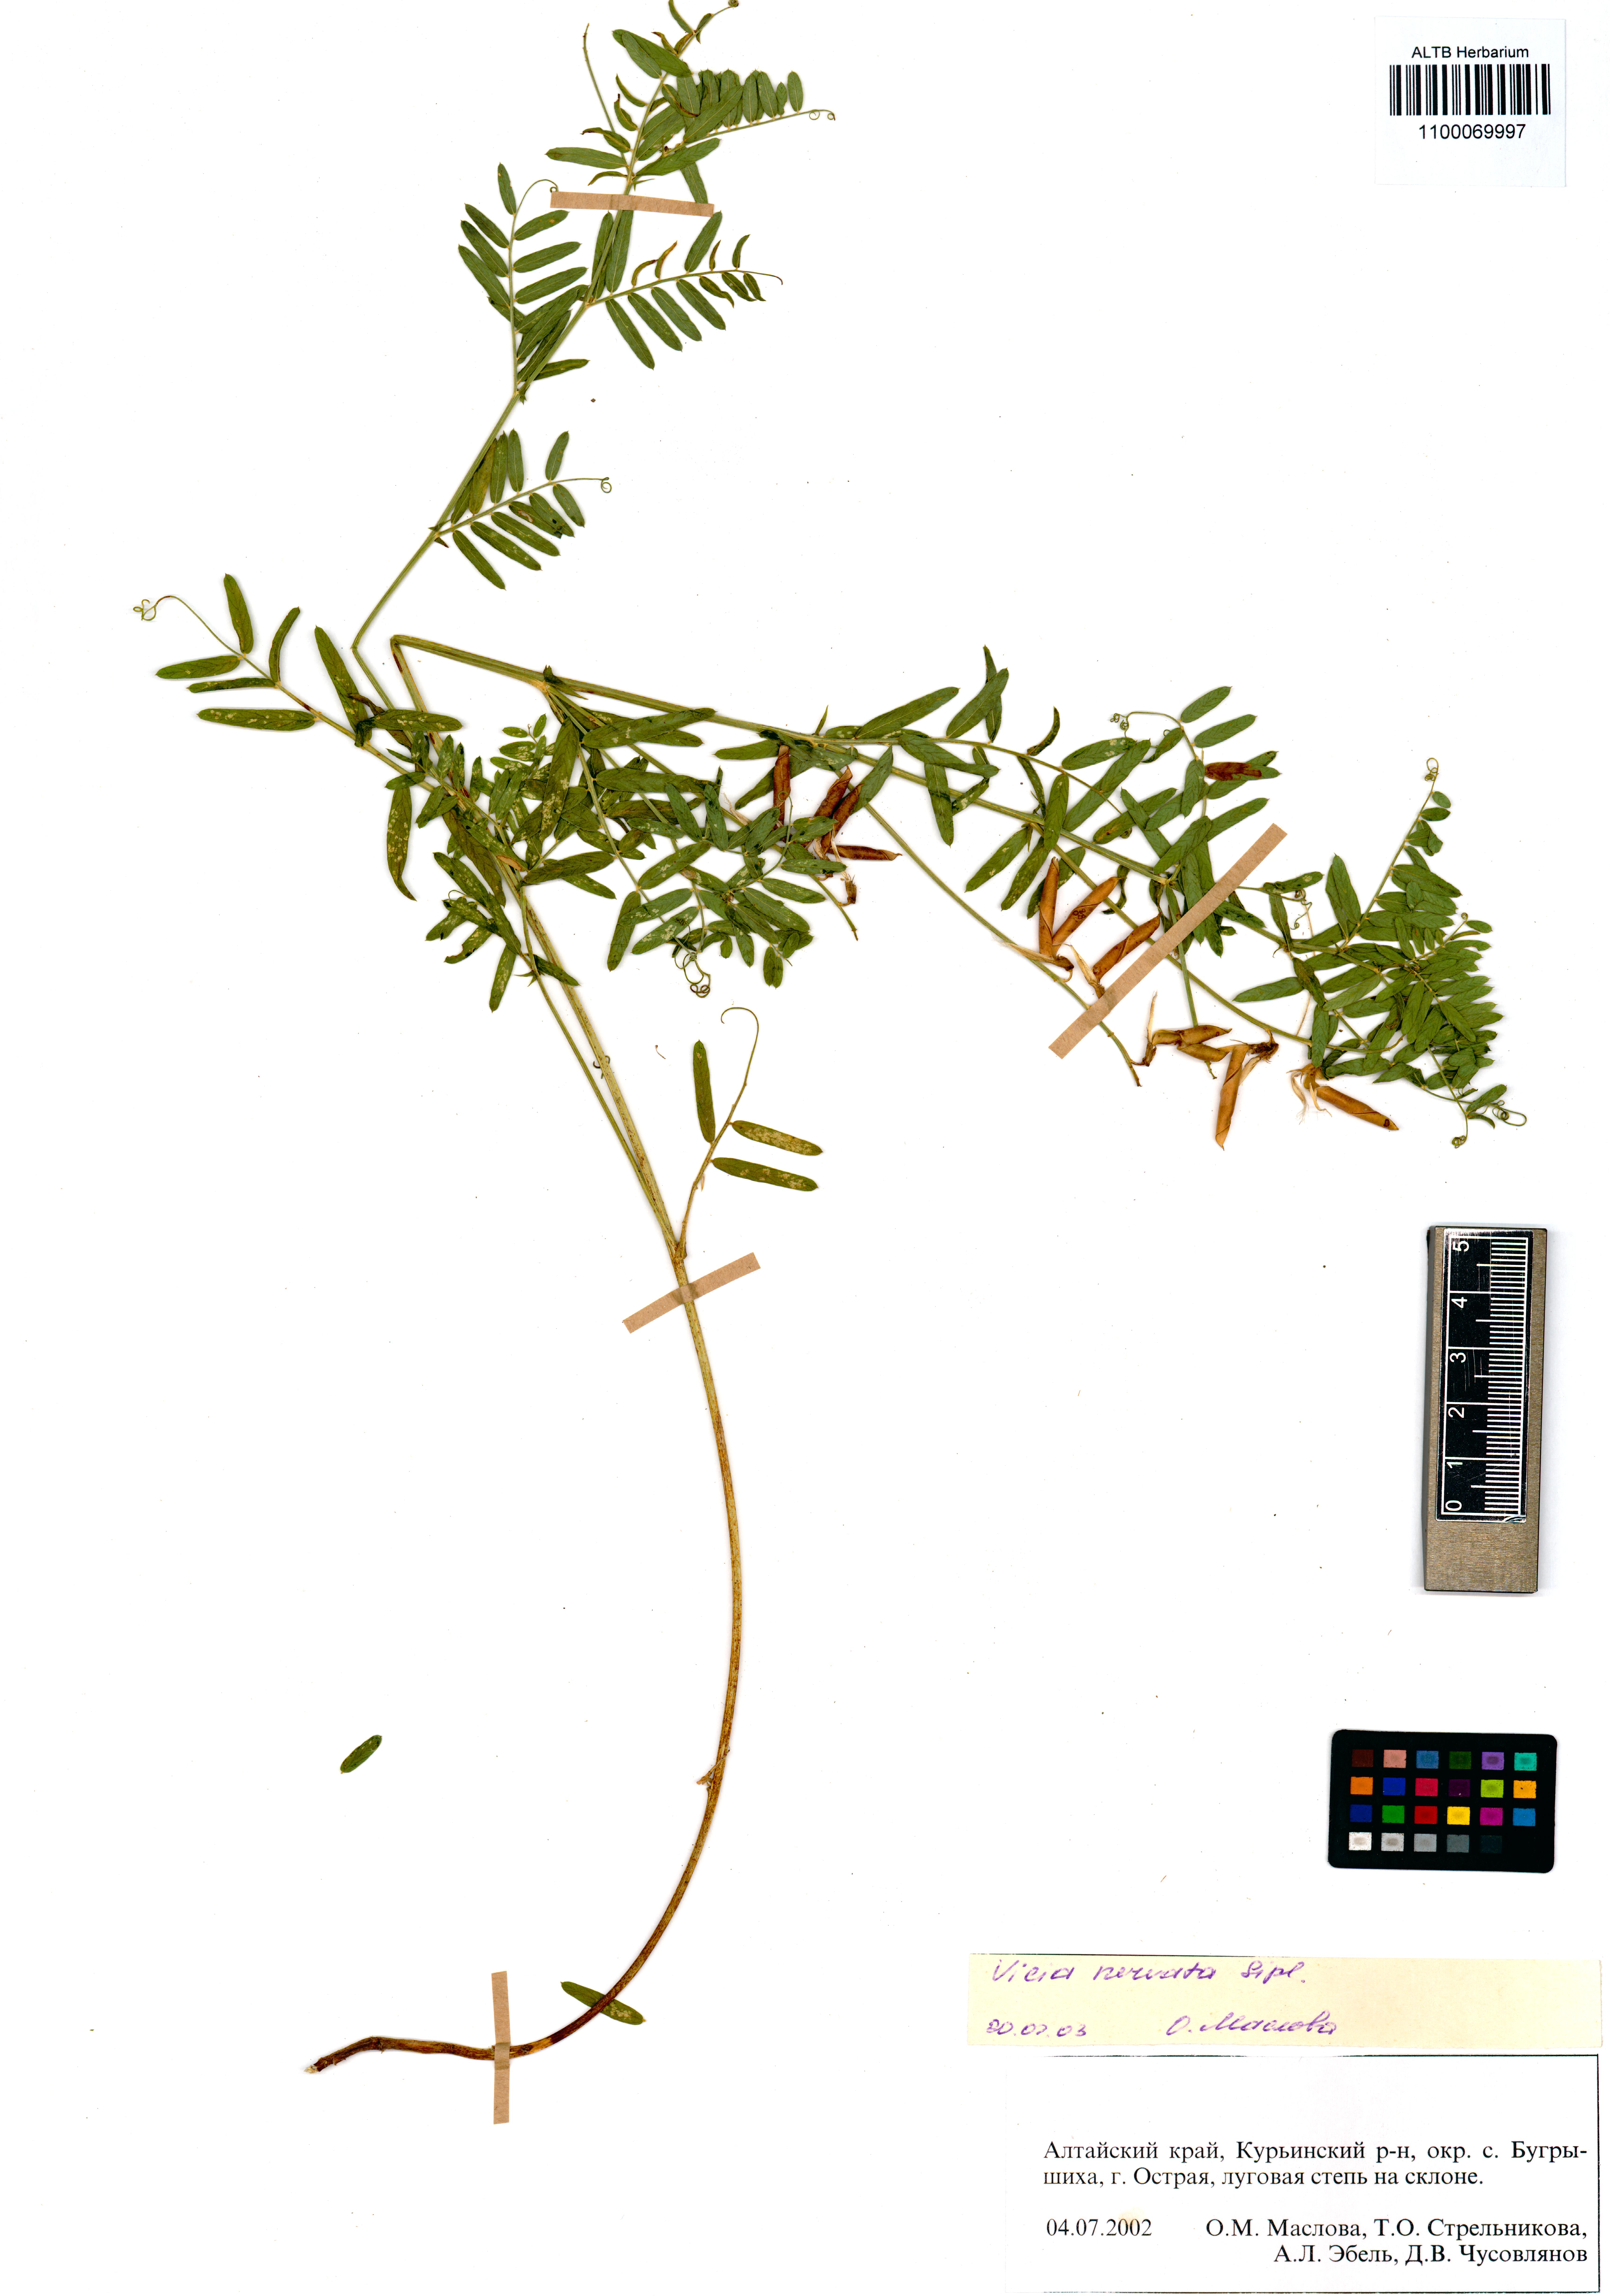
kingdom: Plantae
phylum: Tracheophyta
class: Magnoliopsida
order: Fabales
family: Fabaceae
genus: Vicia
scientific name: Vicia multicaulis
